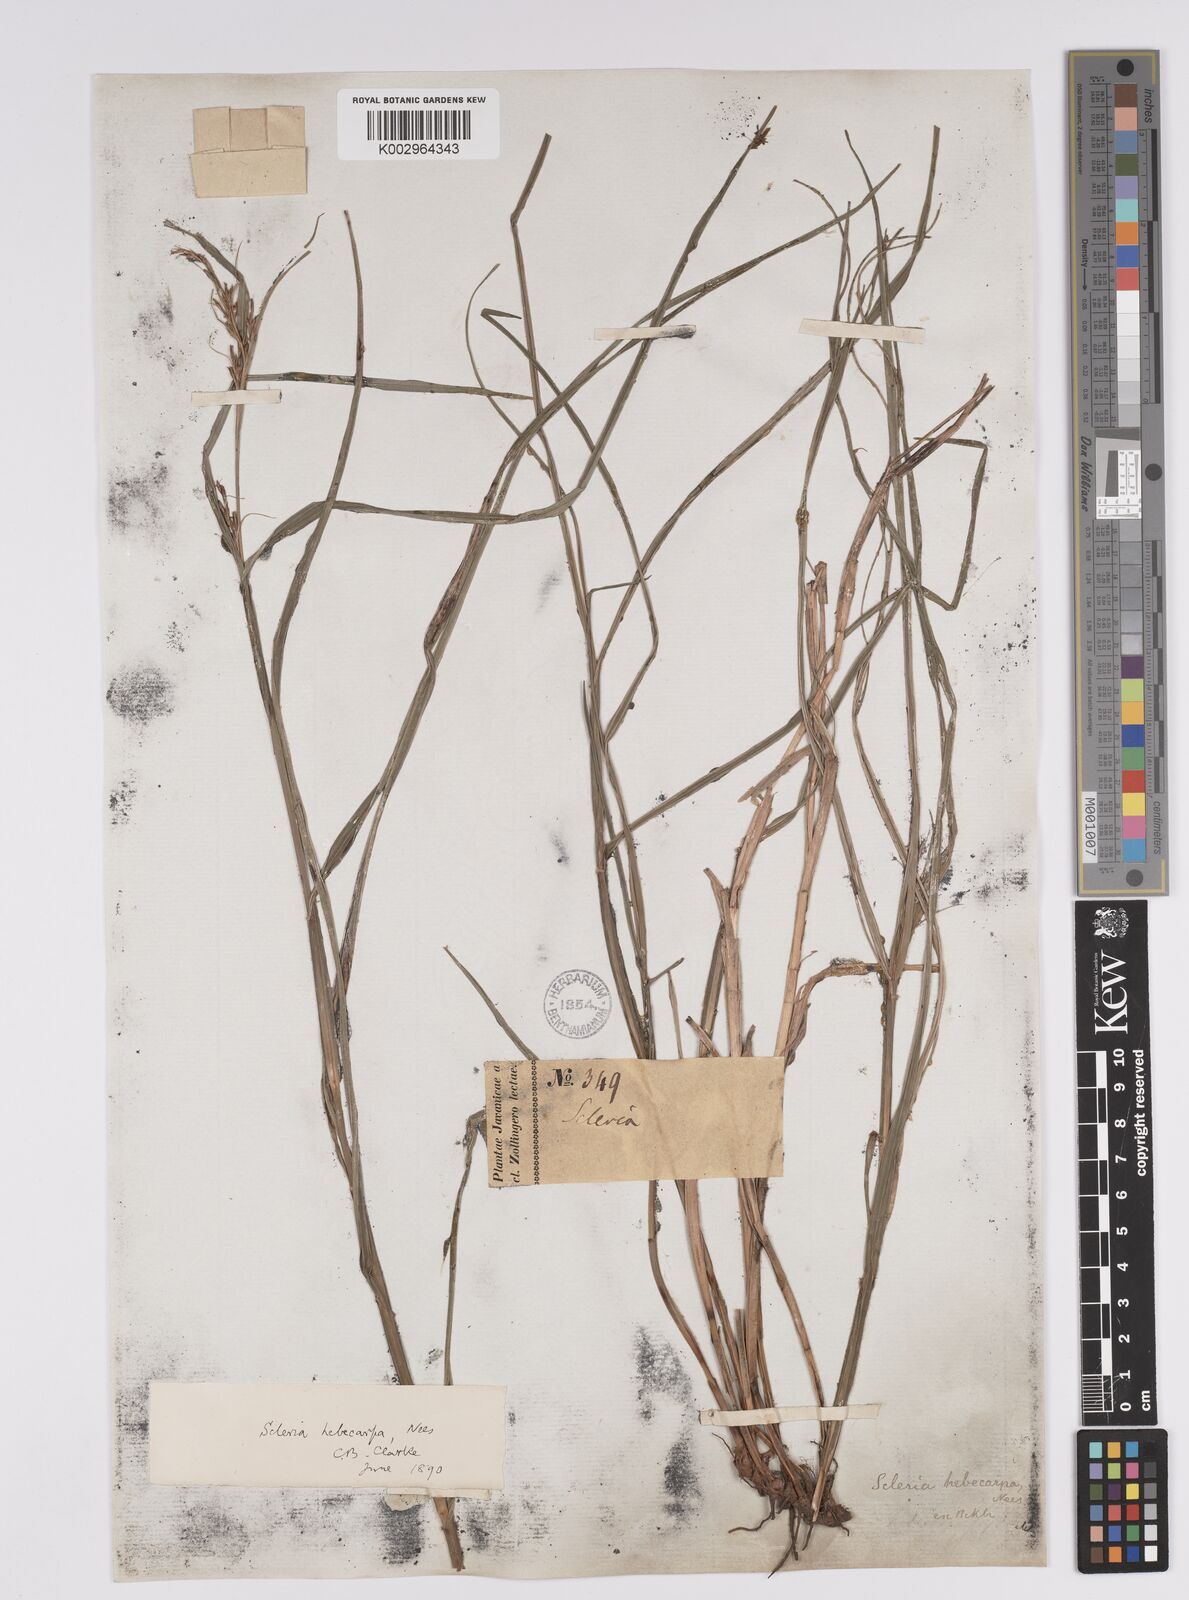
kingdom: Plantae
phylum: Tracheophyta
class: Liliopsida
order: Poales
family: Cyperaceae
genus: Scleria
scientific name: Scleria levis
